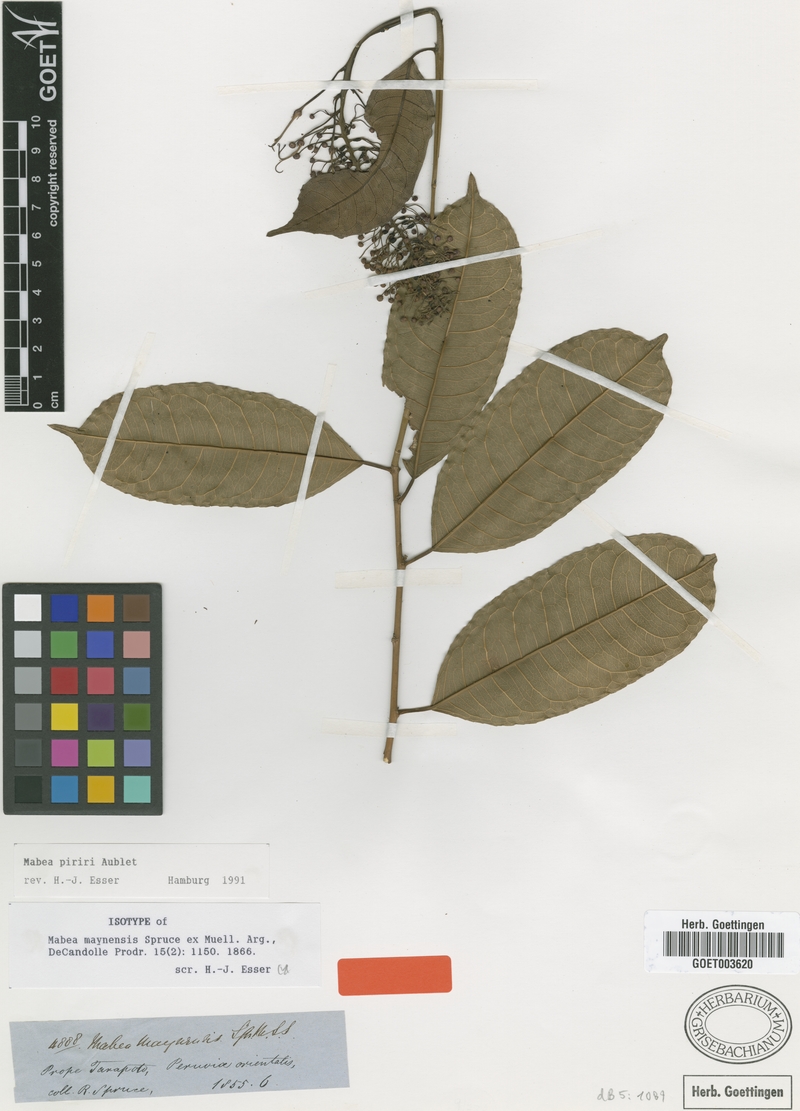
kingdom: Plantae
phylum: Tracheophyta
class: Magnoliopsida
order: Malpighiales
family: Euphorbiaceae
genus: Mabea
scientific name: Mabea piriri
